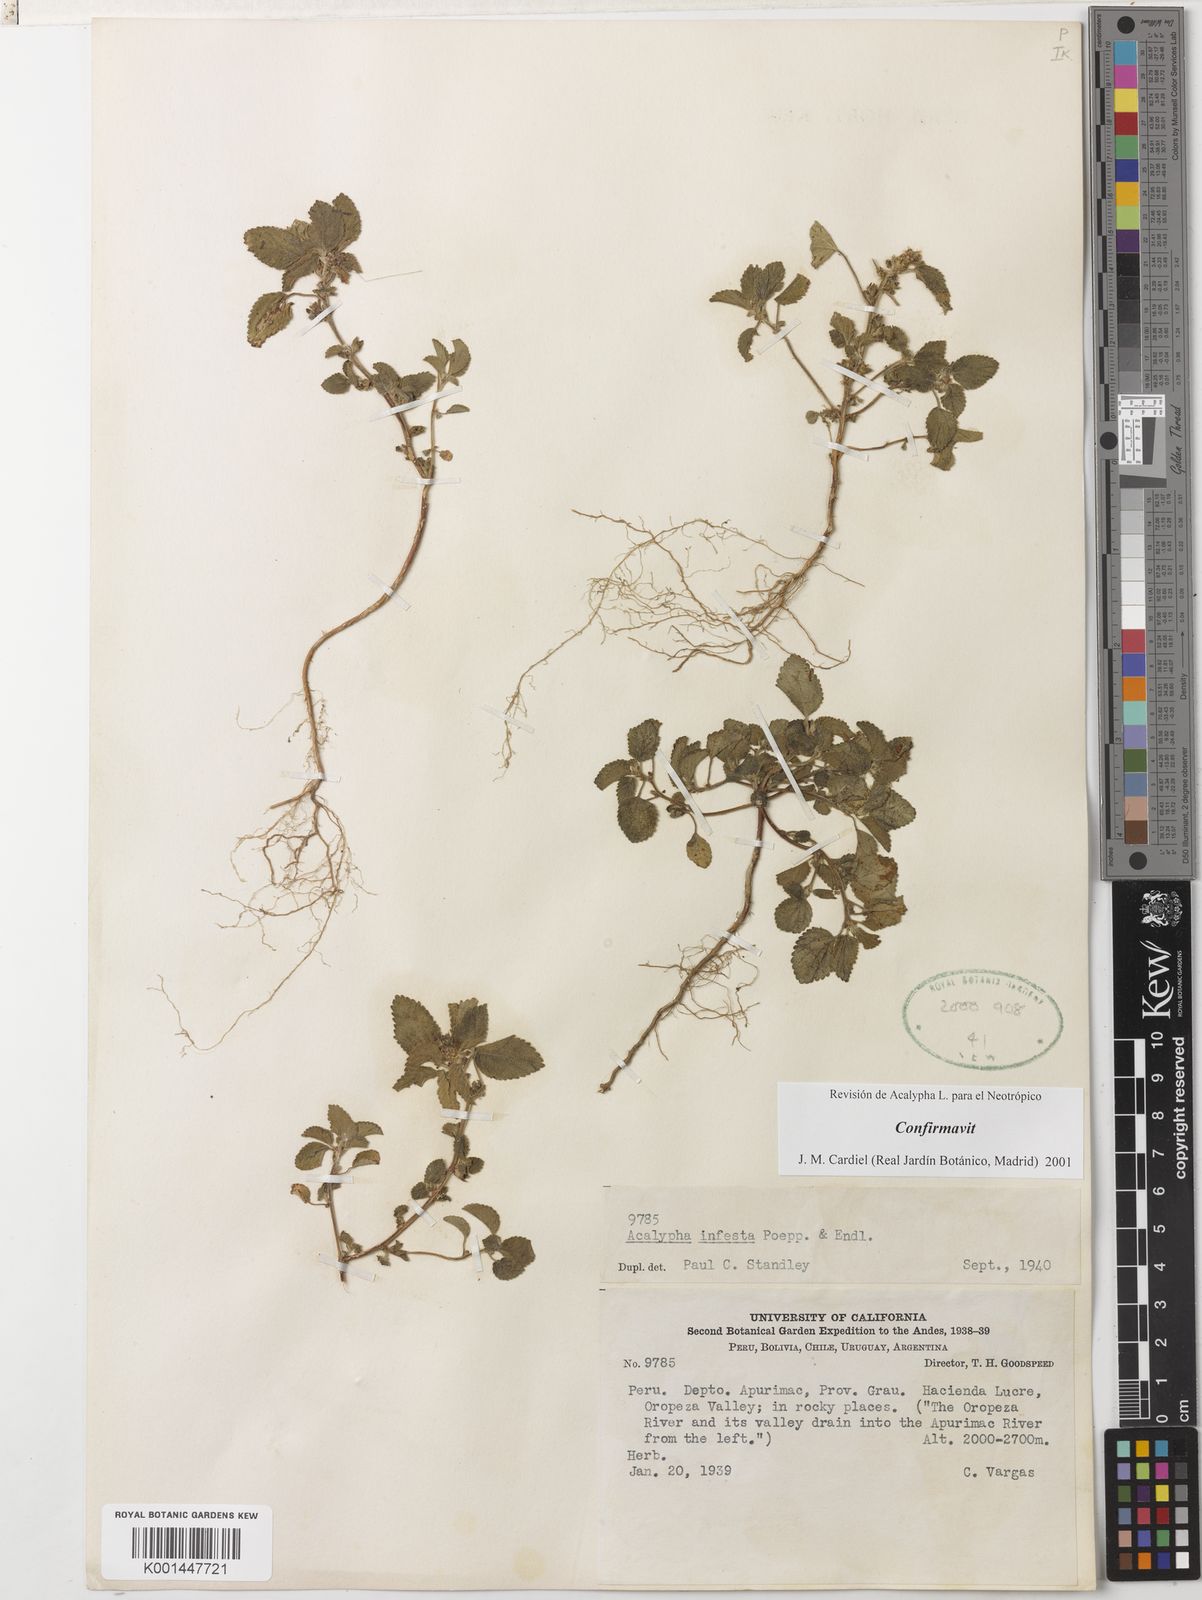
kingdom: Plantae
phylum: Tracheophyta
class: Magnoliopsida
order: Malpighiales
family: Euphorbiaceae
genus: Acalypha
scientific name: Acalypha infesta
